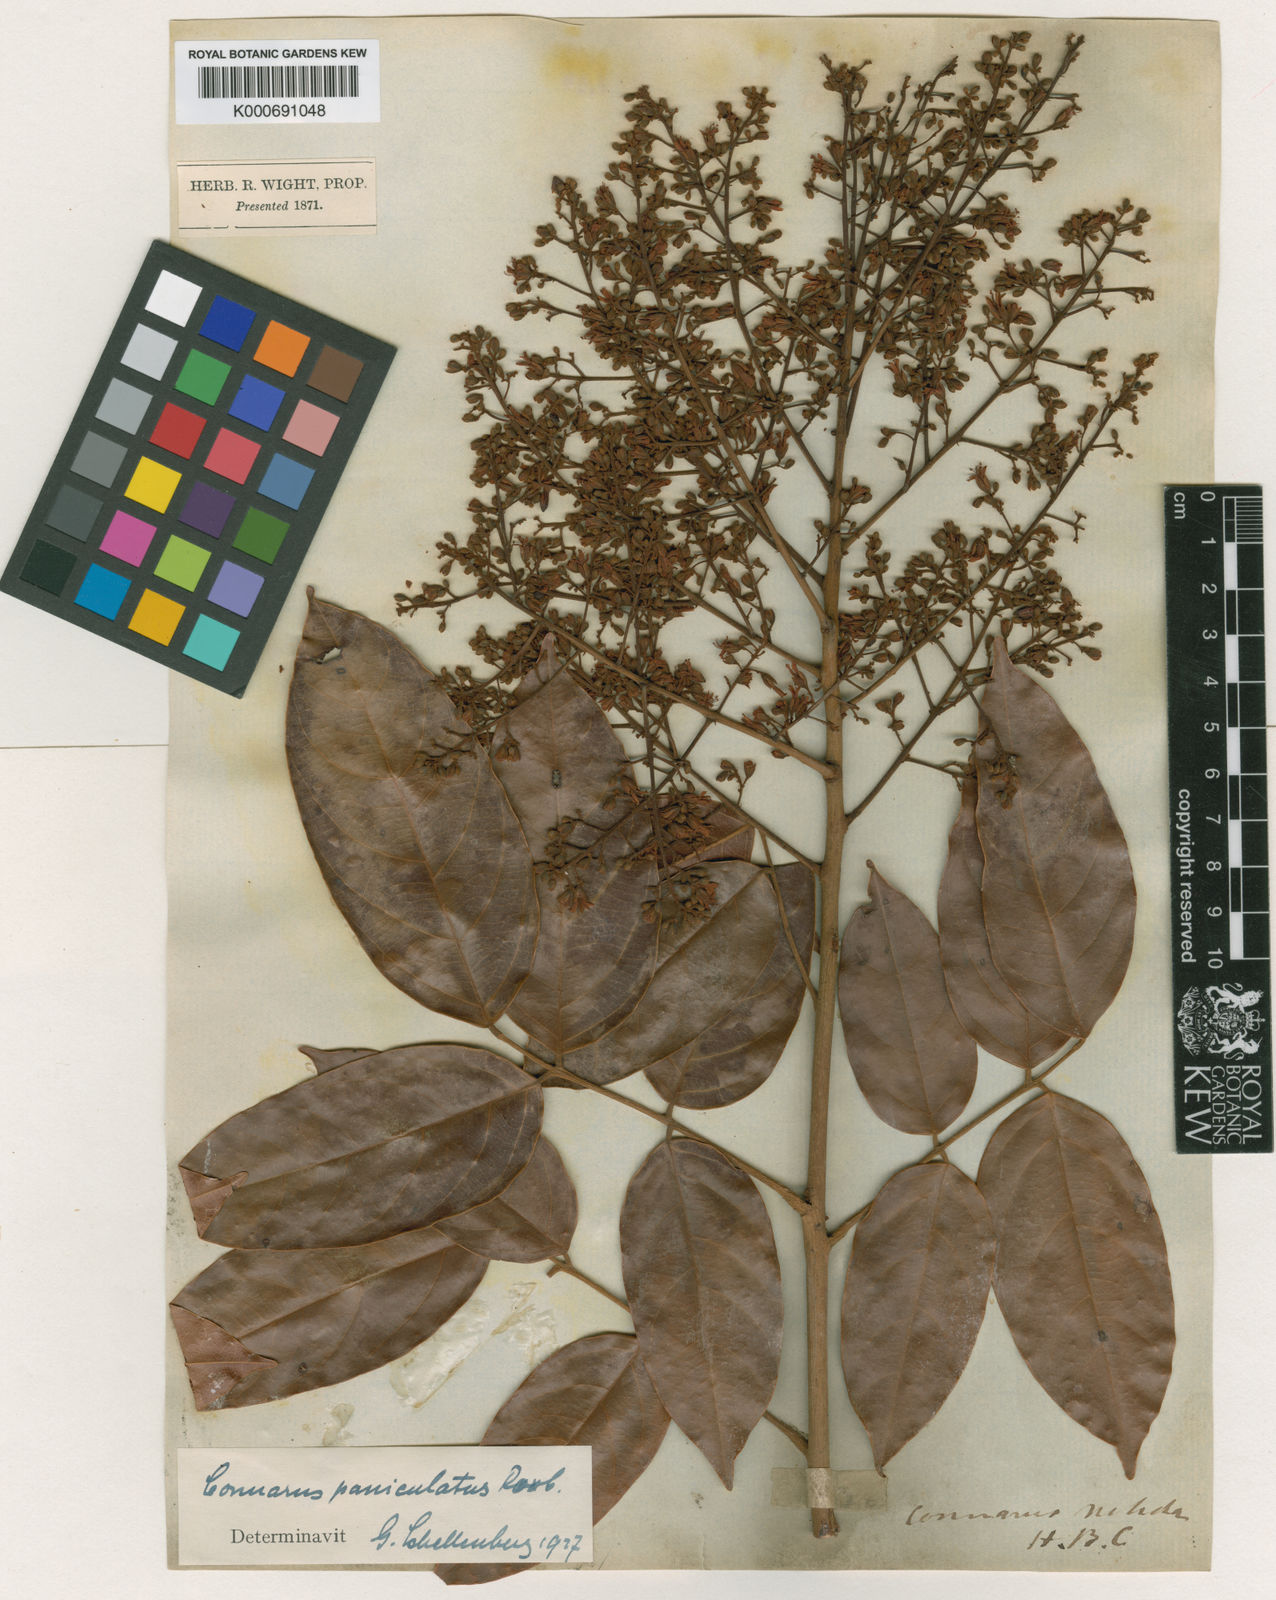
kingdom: Plantae
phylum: Tracheophyta
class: Magnoliopsida
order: Oxalidales
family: Connaraceae
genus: Connarus
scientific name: Connarus paniculatus
